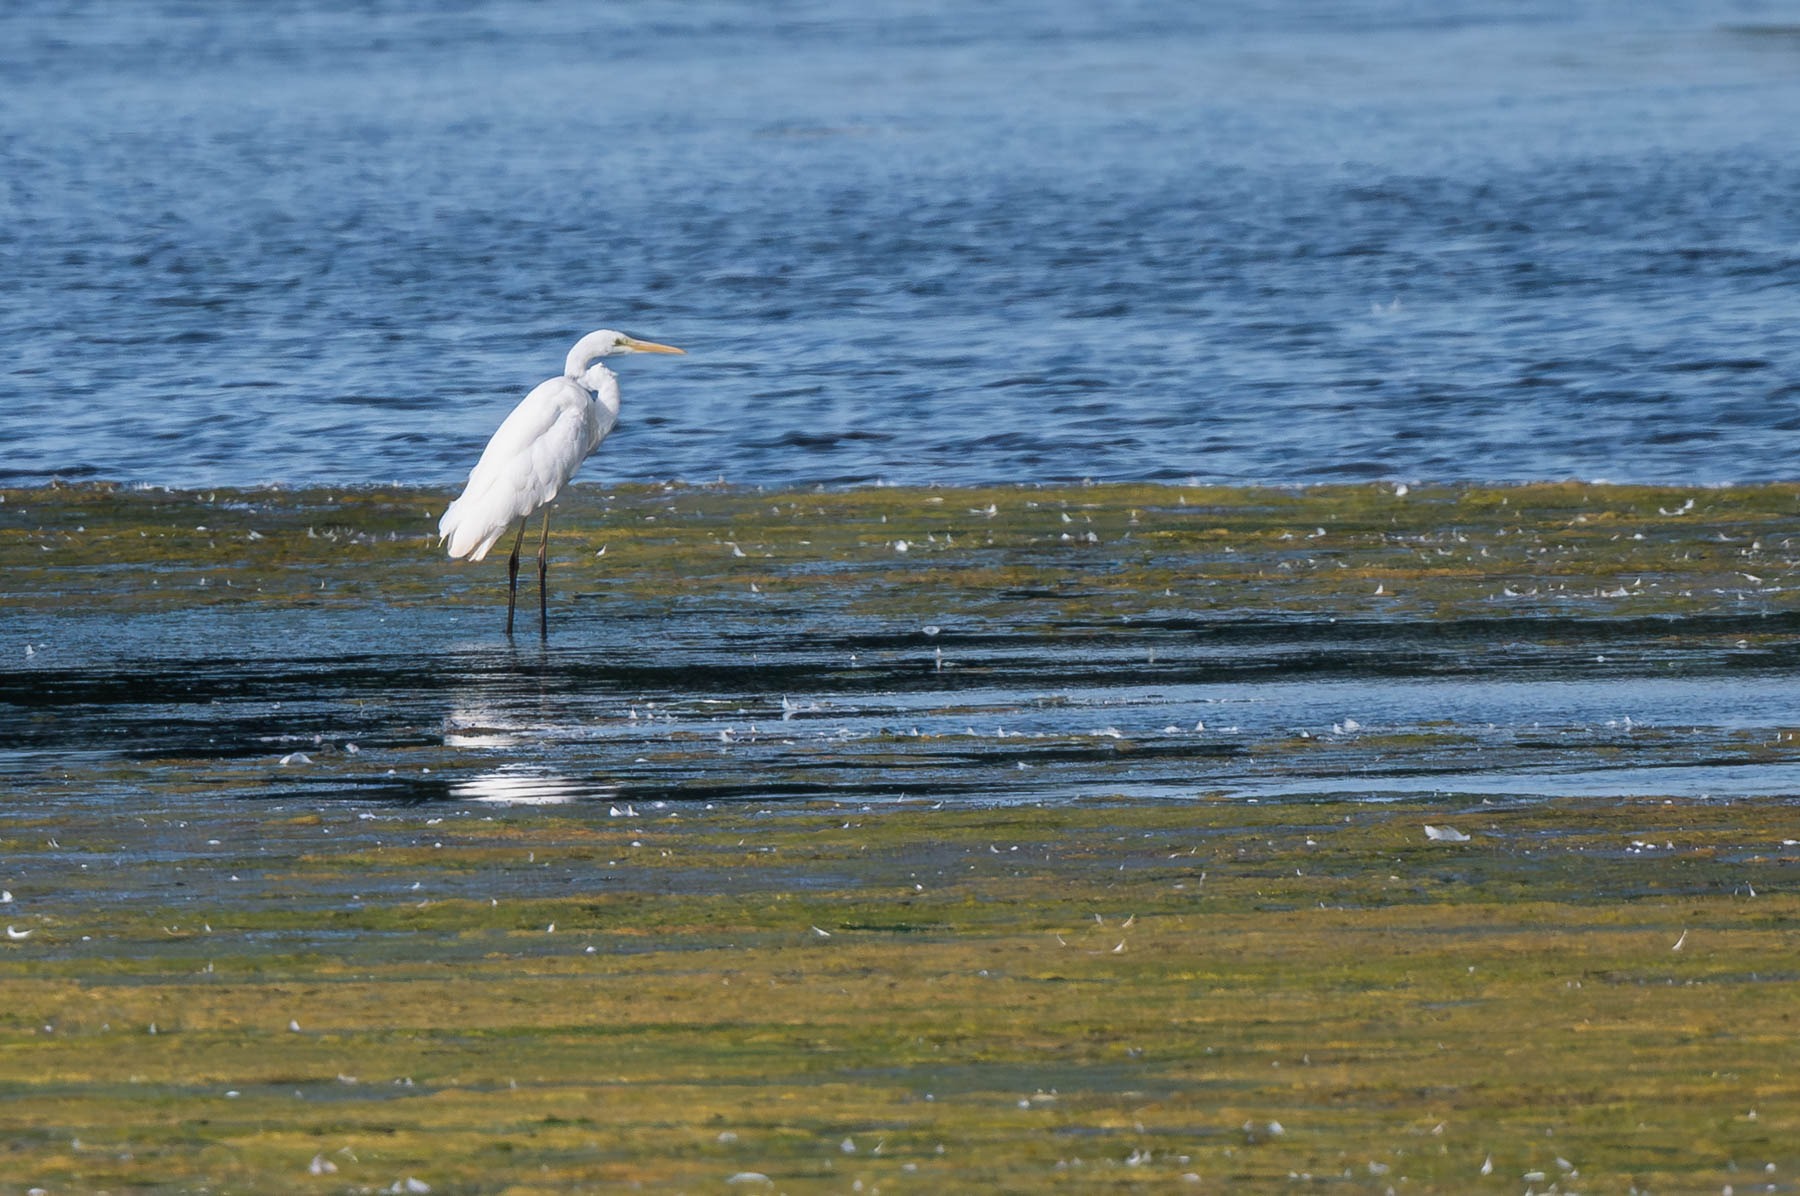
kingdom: Animalia
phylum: Chordata
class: Aves
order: Pelecaniformes
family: Ardeidae
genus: Ardea
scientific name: Ardea alba
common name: Sølvhejre
